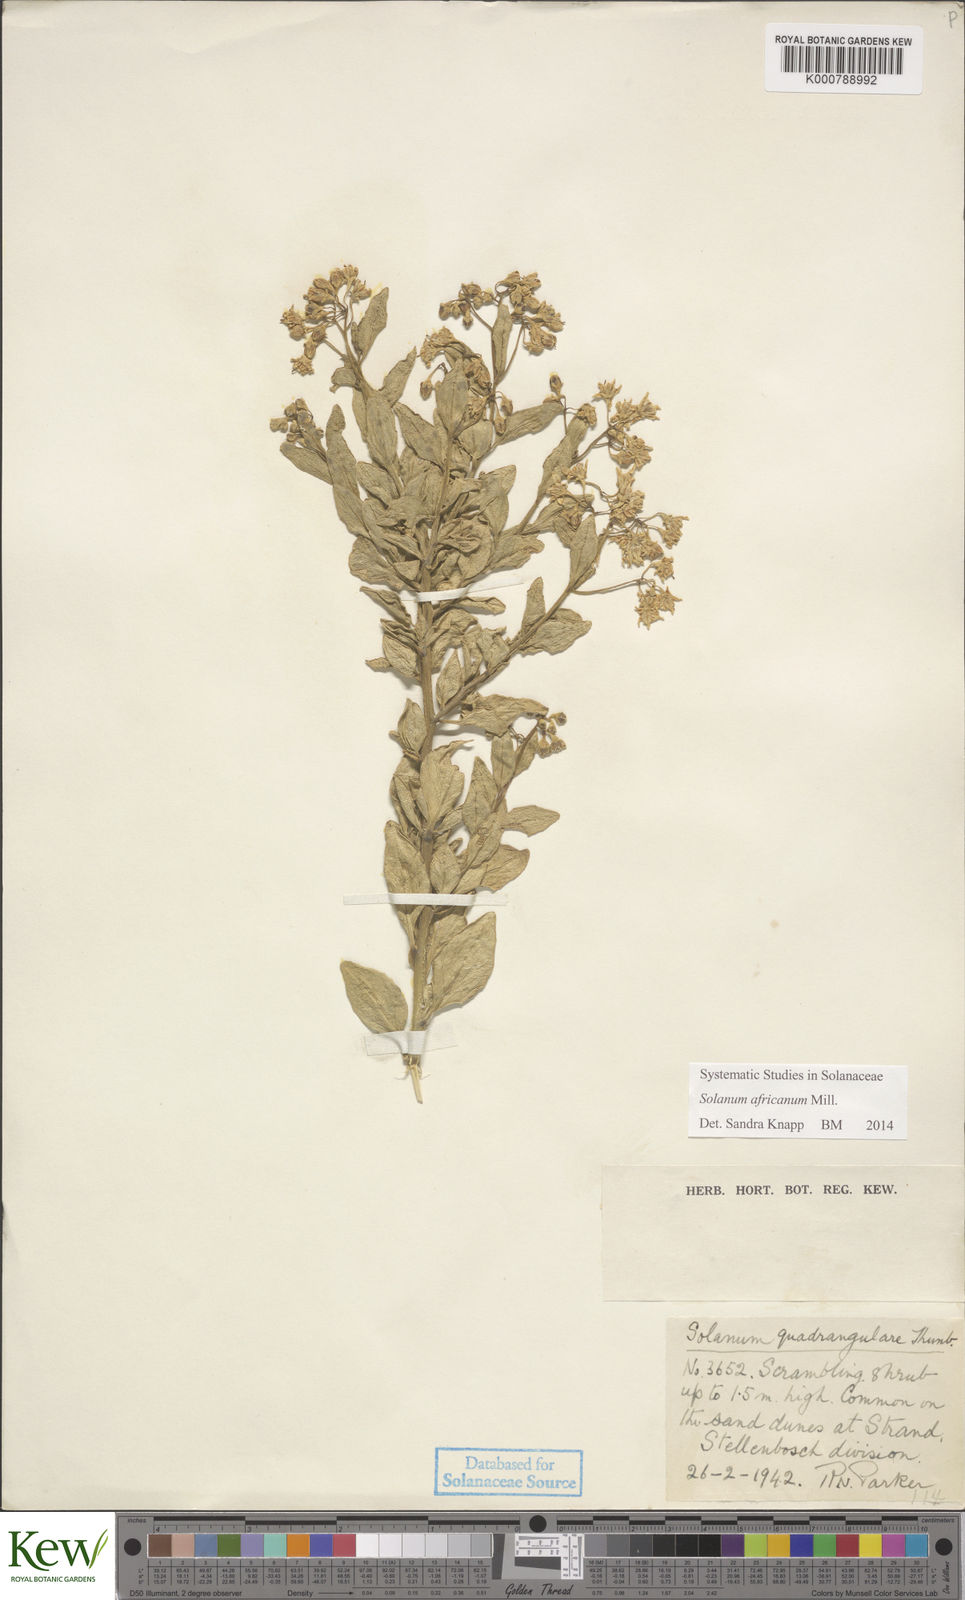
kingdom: Plantae
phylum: Tracheophyta
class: Magnoliopsida
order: Solanales
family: Solanaceae
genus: Solanum
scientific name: Solanum africanum
